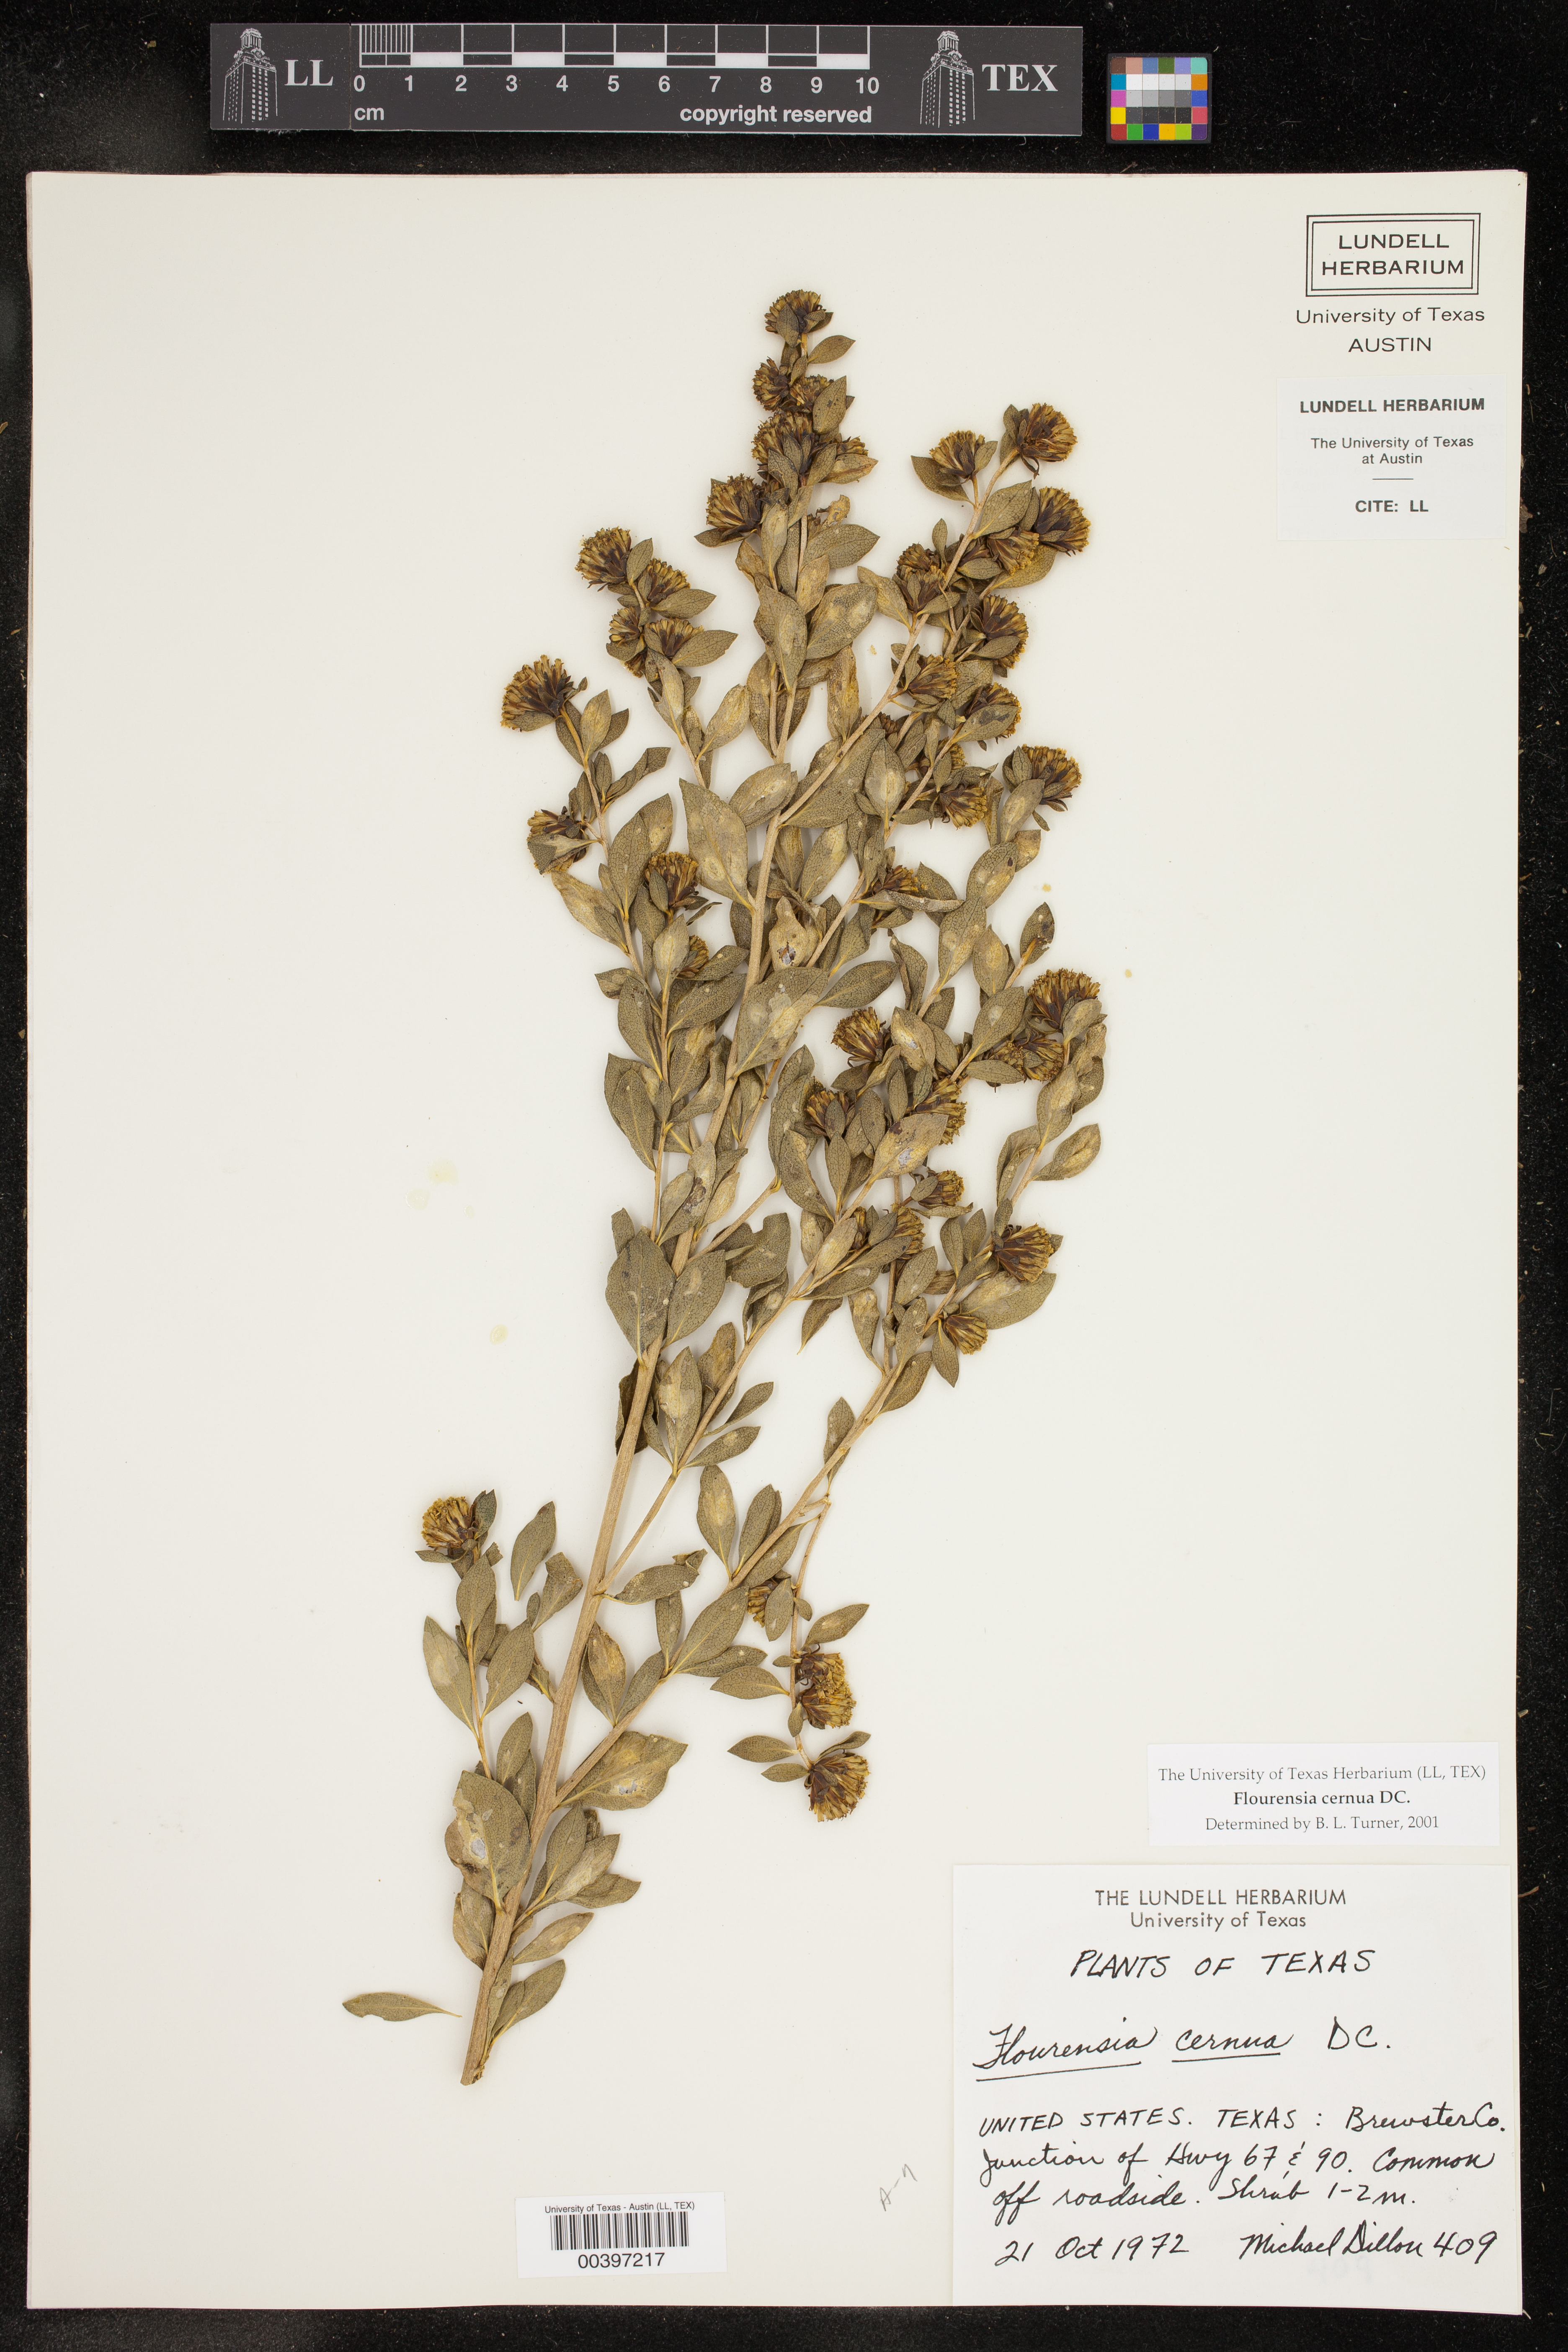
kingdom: Plantae
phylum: Tracheophyta
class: Magnoliopsida
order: Asterales
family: Asteraceae
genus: Flourensia
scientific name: Flourensia cernua
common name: Varnishbush
